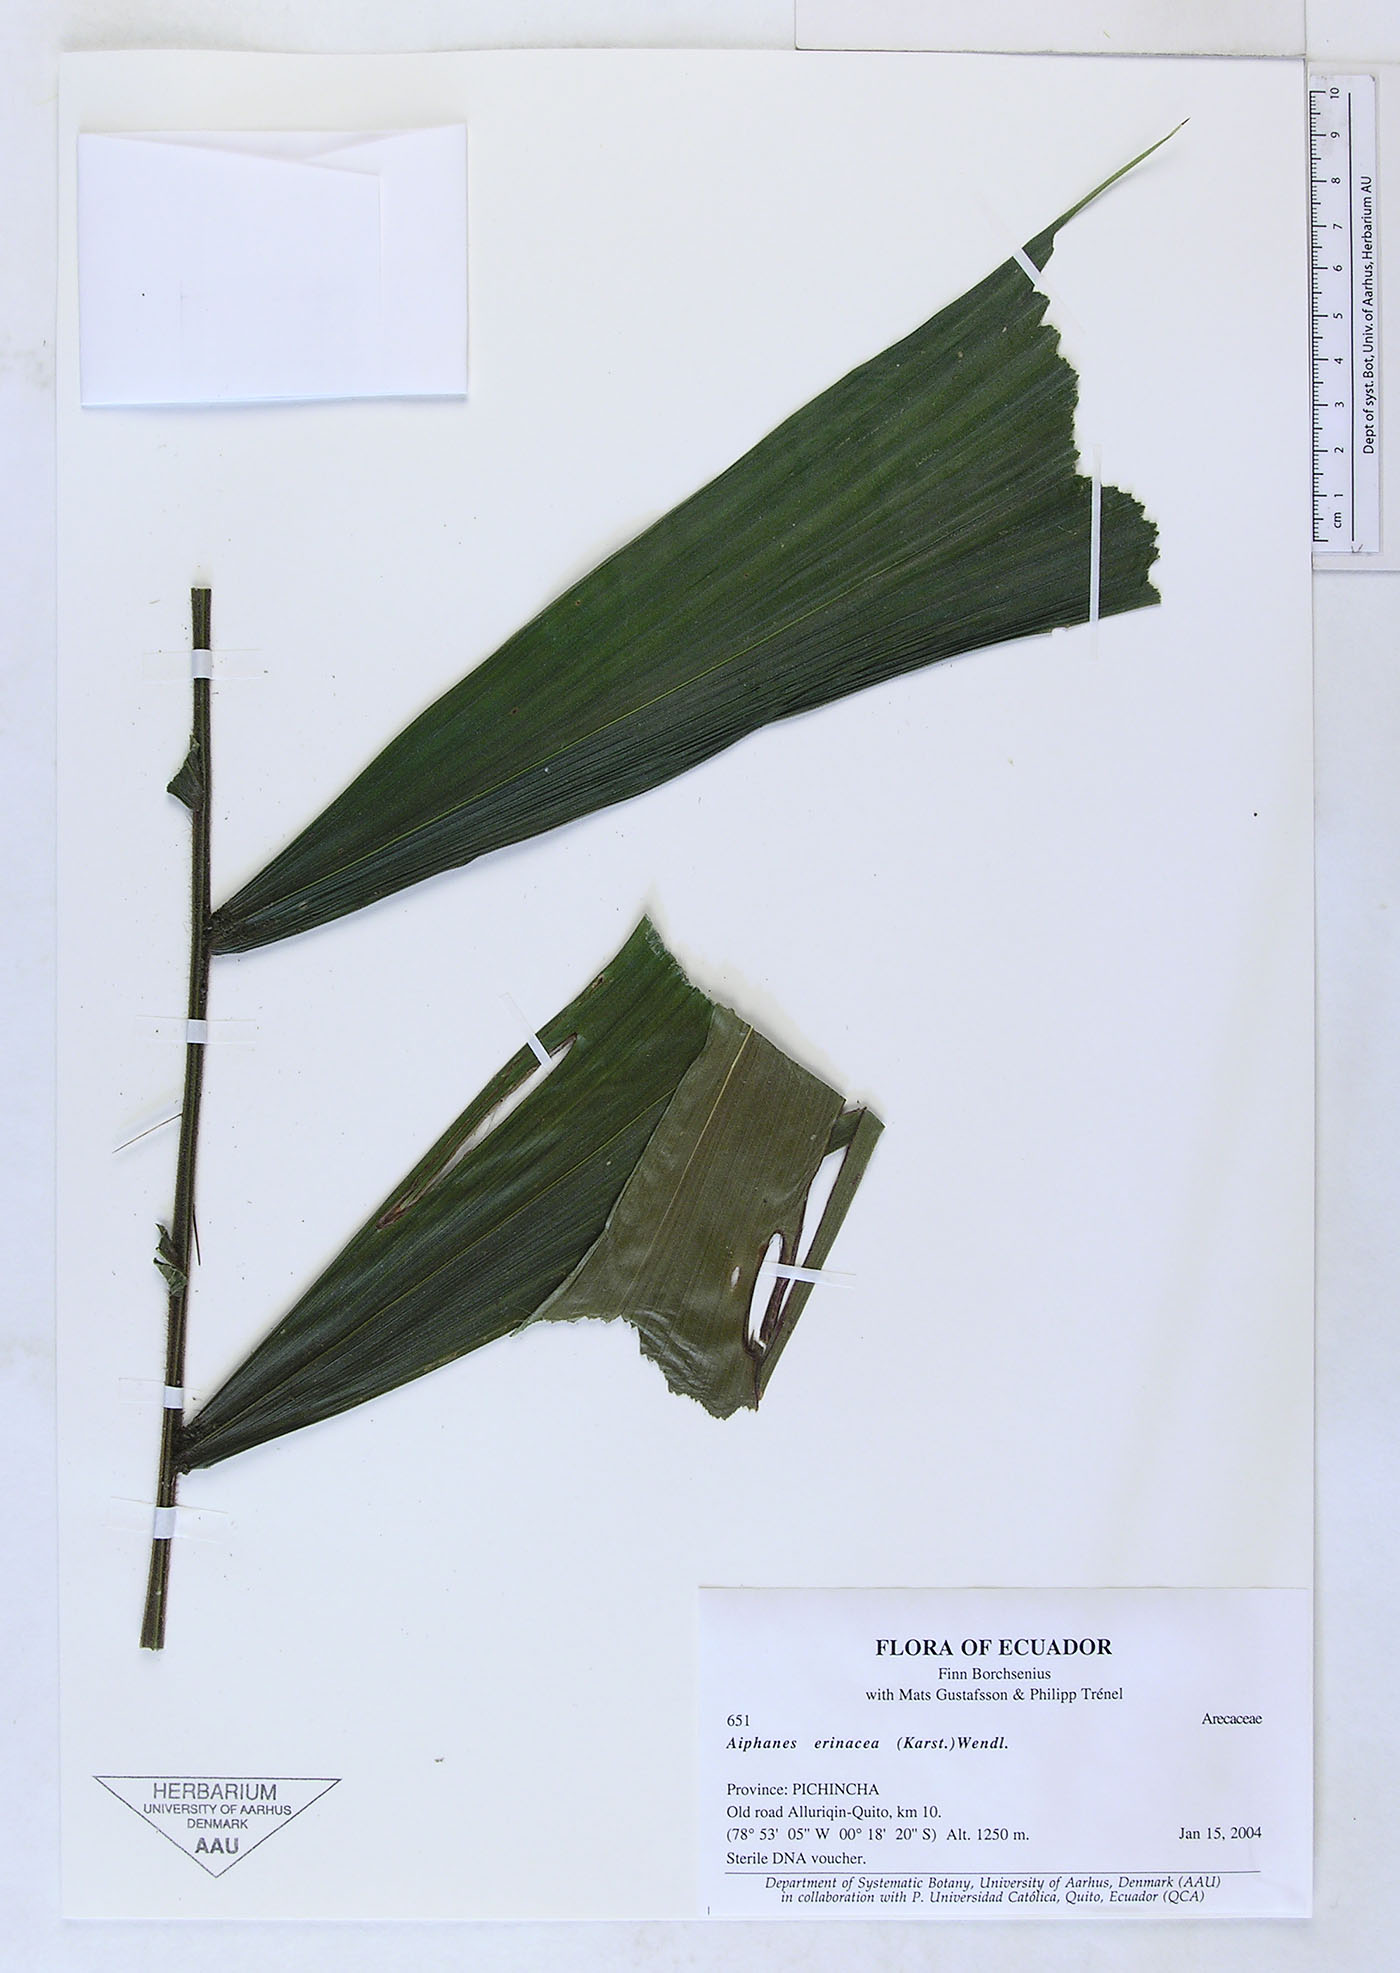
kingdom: Plantae
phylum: Tracheophyta
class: Liliopsida
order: Arecales
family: Arecaceae
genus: Aiphanes
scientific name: Aiphanes erinacea
